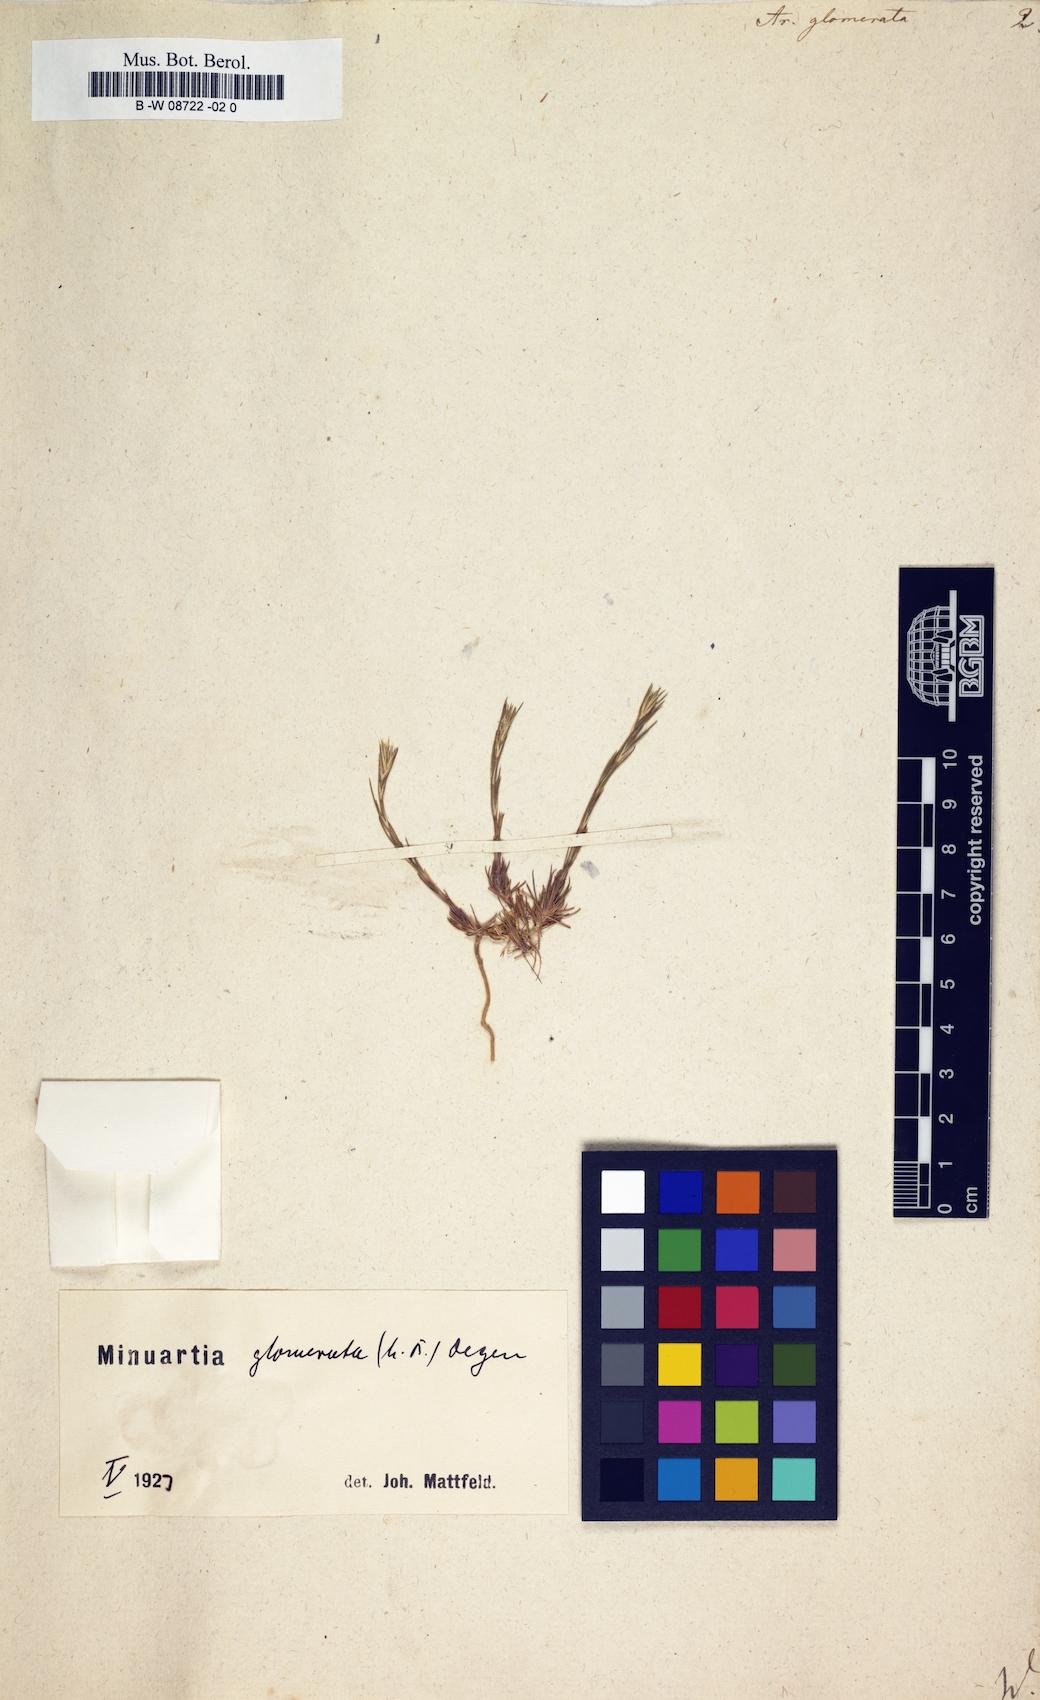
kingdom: Plantae
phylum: Tracheophyta
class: Magnoliopsida
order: Caryophyllales
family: Caryophyllaceae
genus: Minuartia
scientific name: Minuartia glomerata
